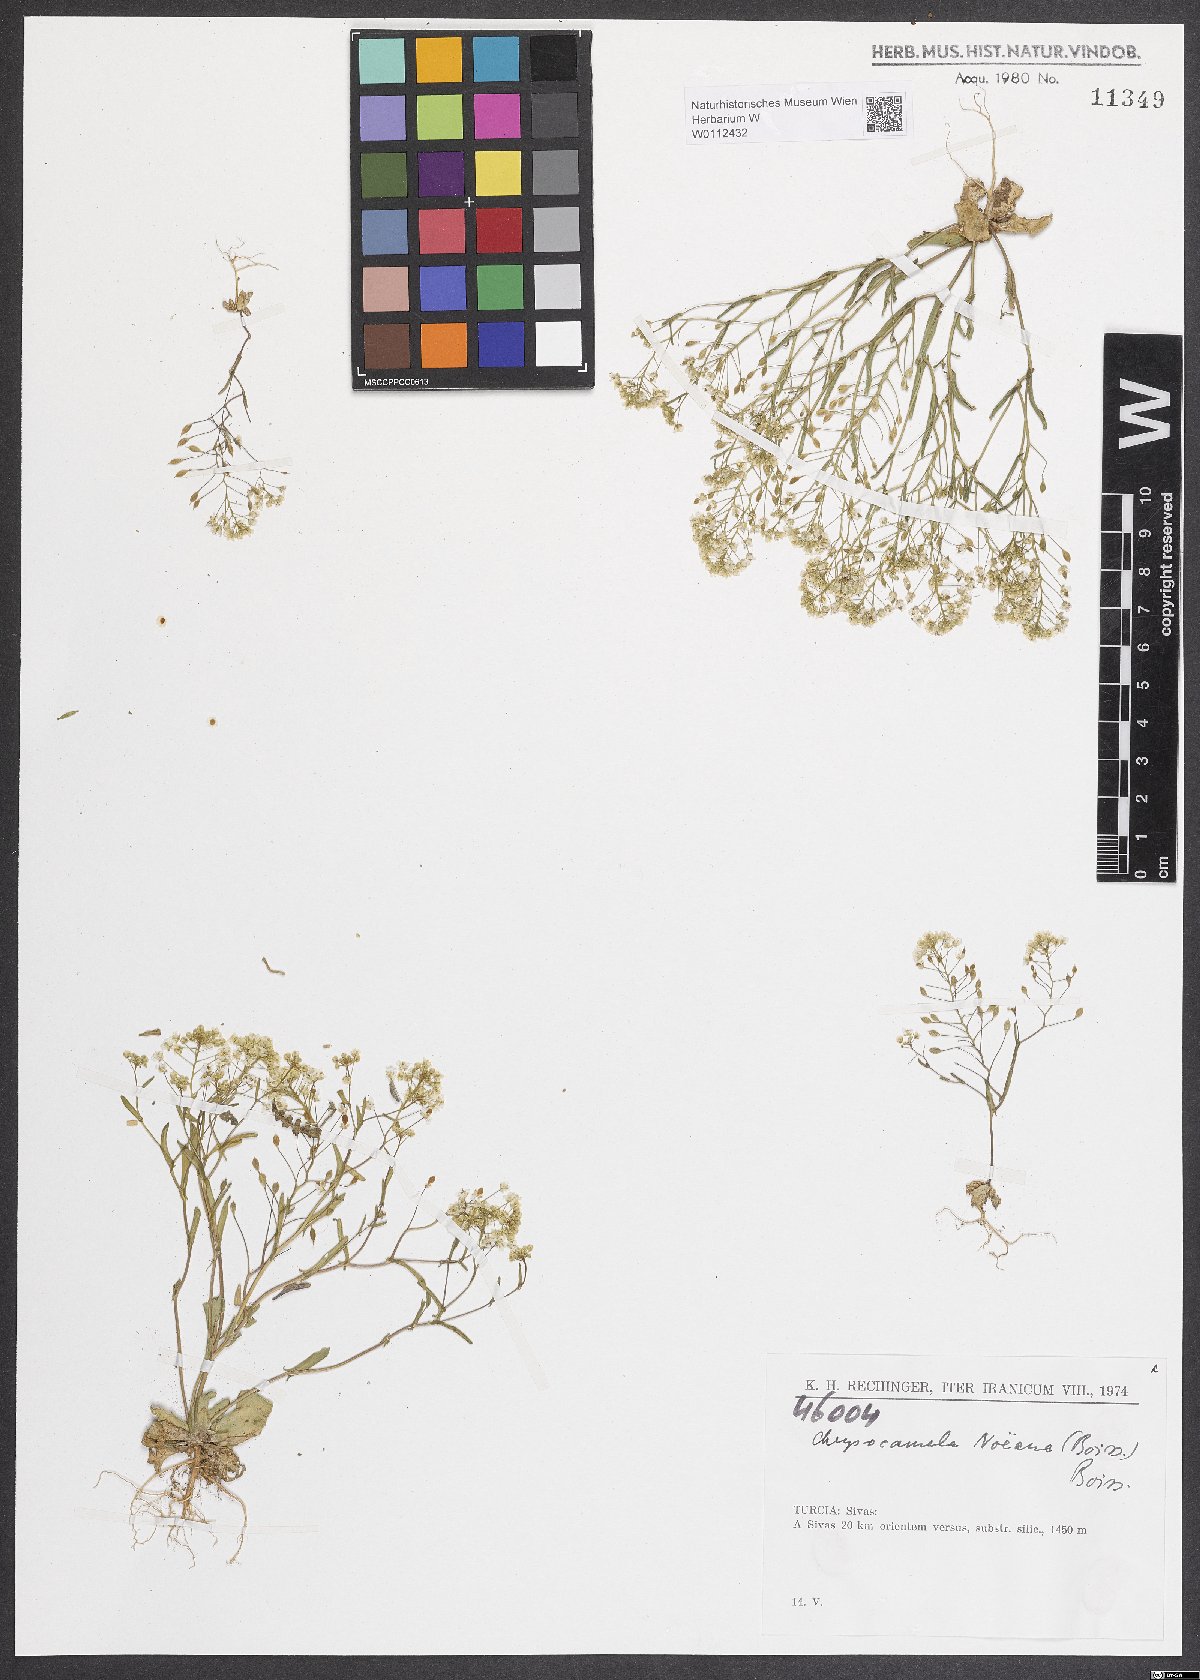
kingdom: Plantae
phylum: Tracheophyta
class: Magnoliopsida
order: Brassicales
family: Brassicaceae
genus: Chrysochamela
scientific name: Chrysochamela noeana
